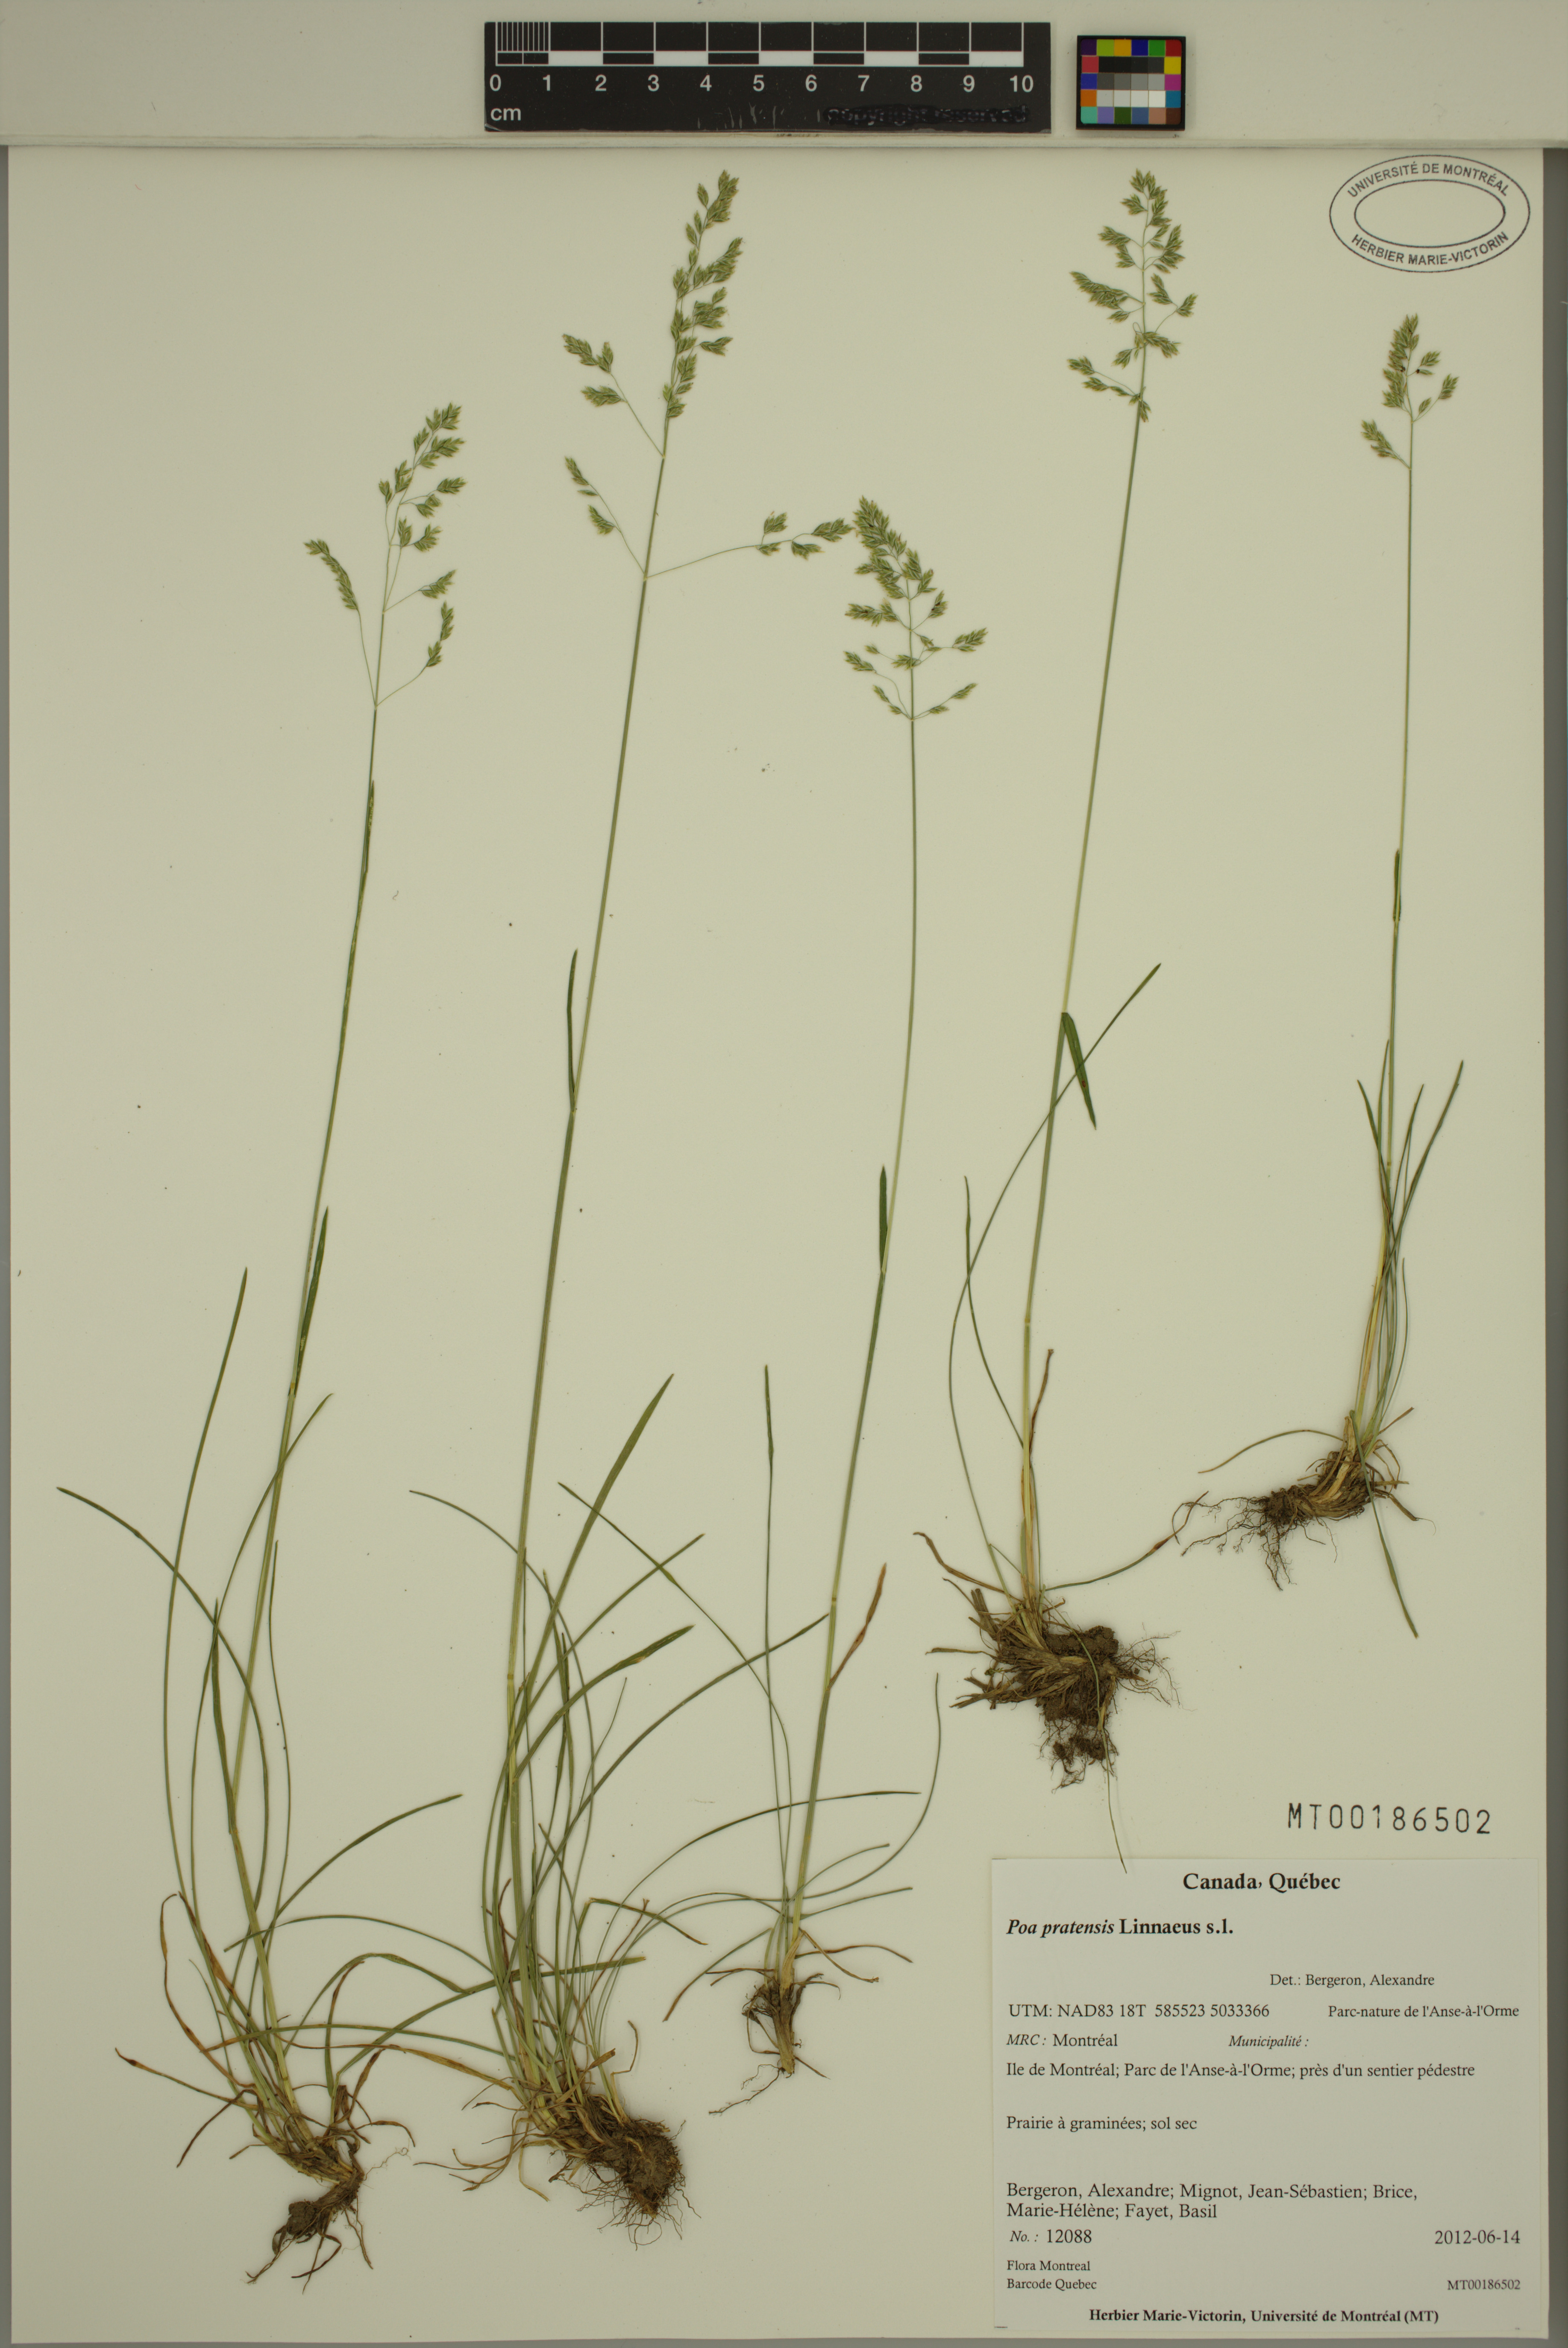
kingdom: Plantae
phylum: Tracheophyta
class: Liliopsida
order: Poales
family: Poaceae
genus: Poa
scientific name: Poa pratensis
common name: Kentucky bluegrass
